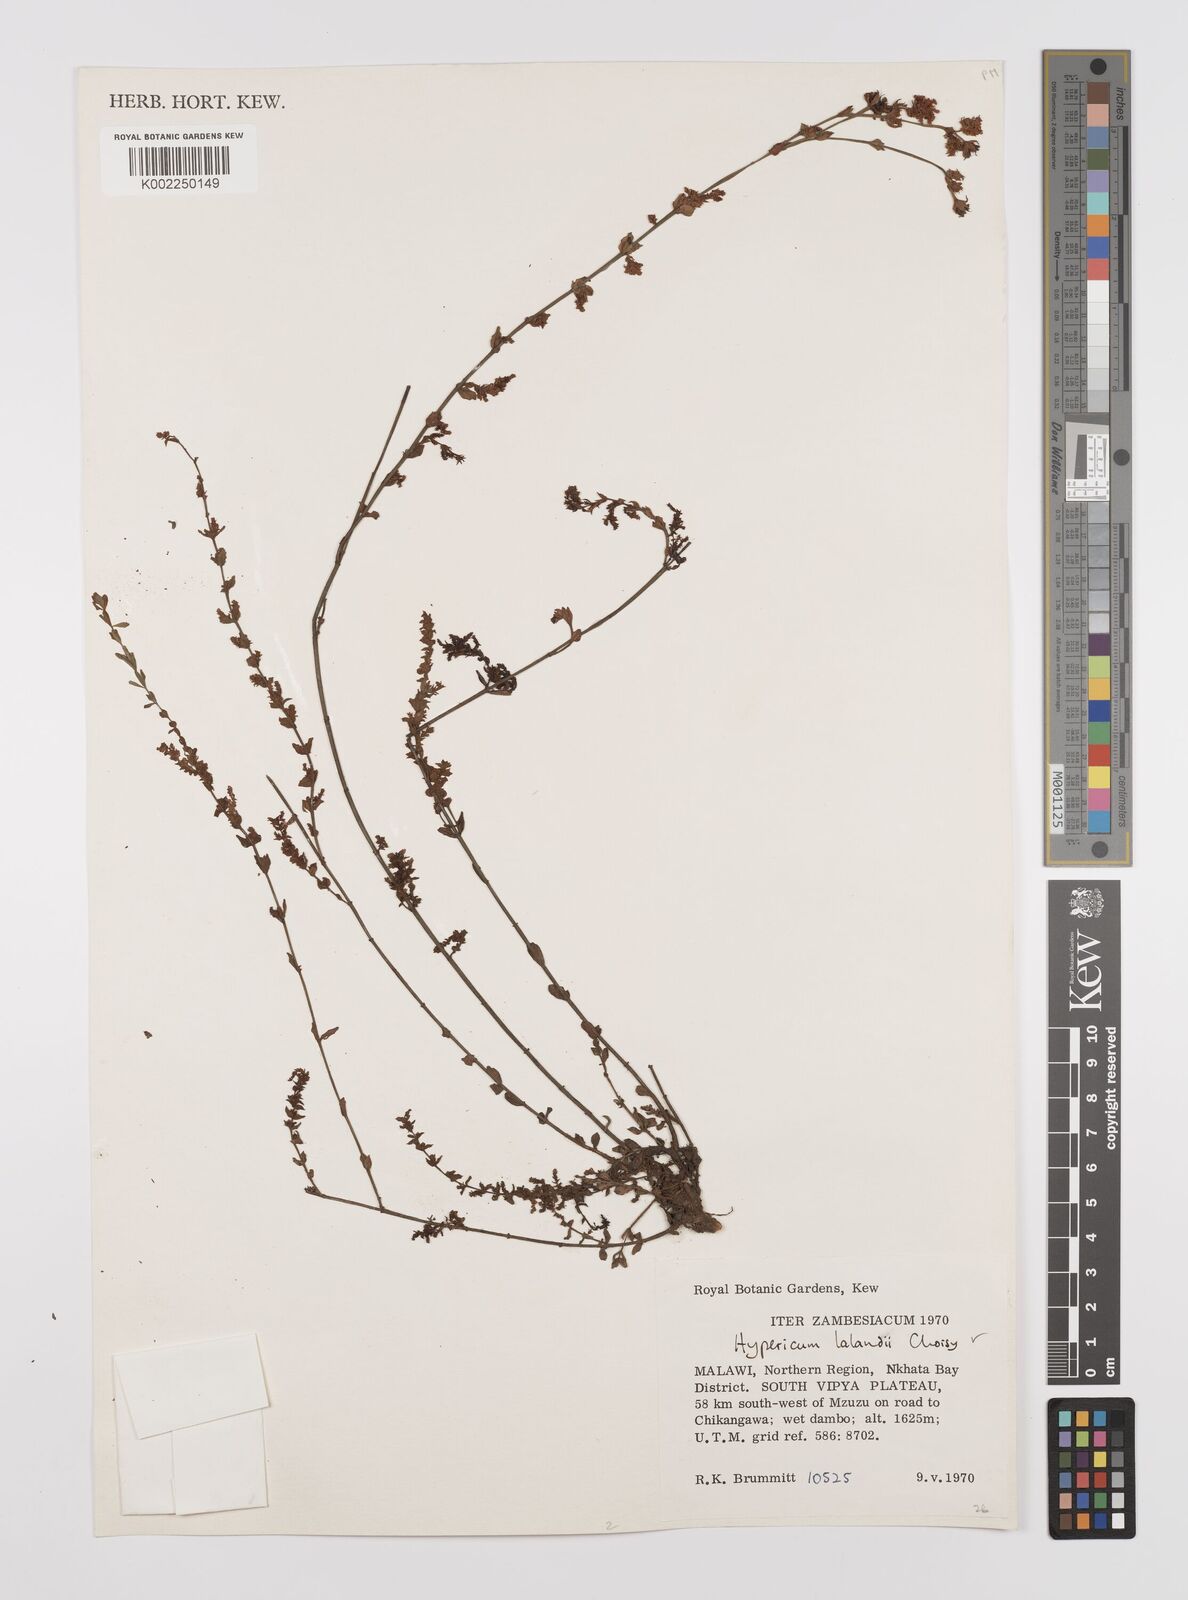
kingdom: Plantae
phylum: Tracheophyta
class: Magnoliopsida
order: Malpighiales
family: Hypericaceae
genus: Hypericum
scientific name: Hypericum lalandii
